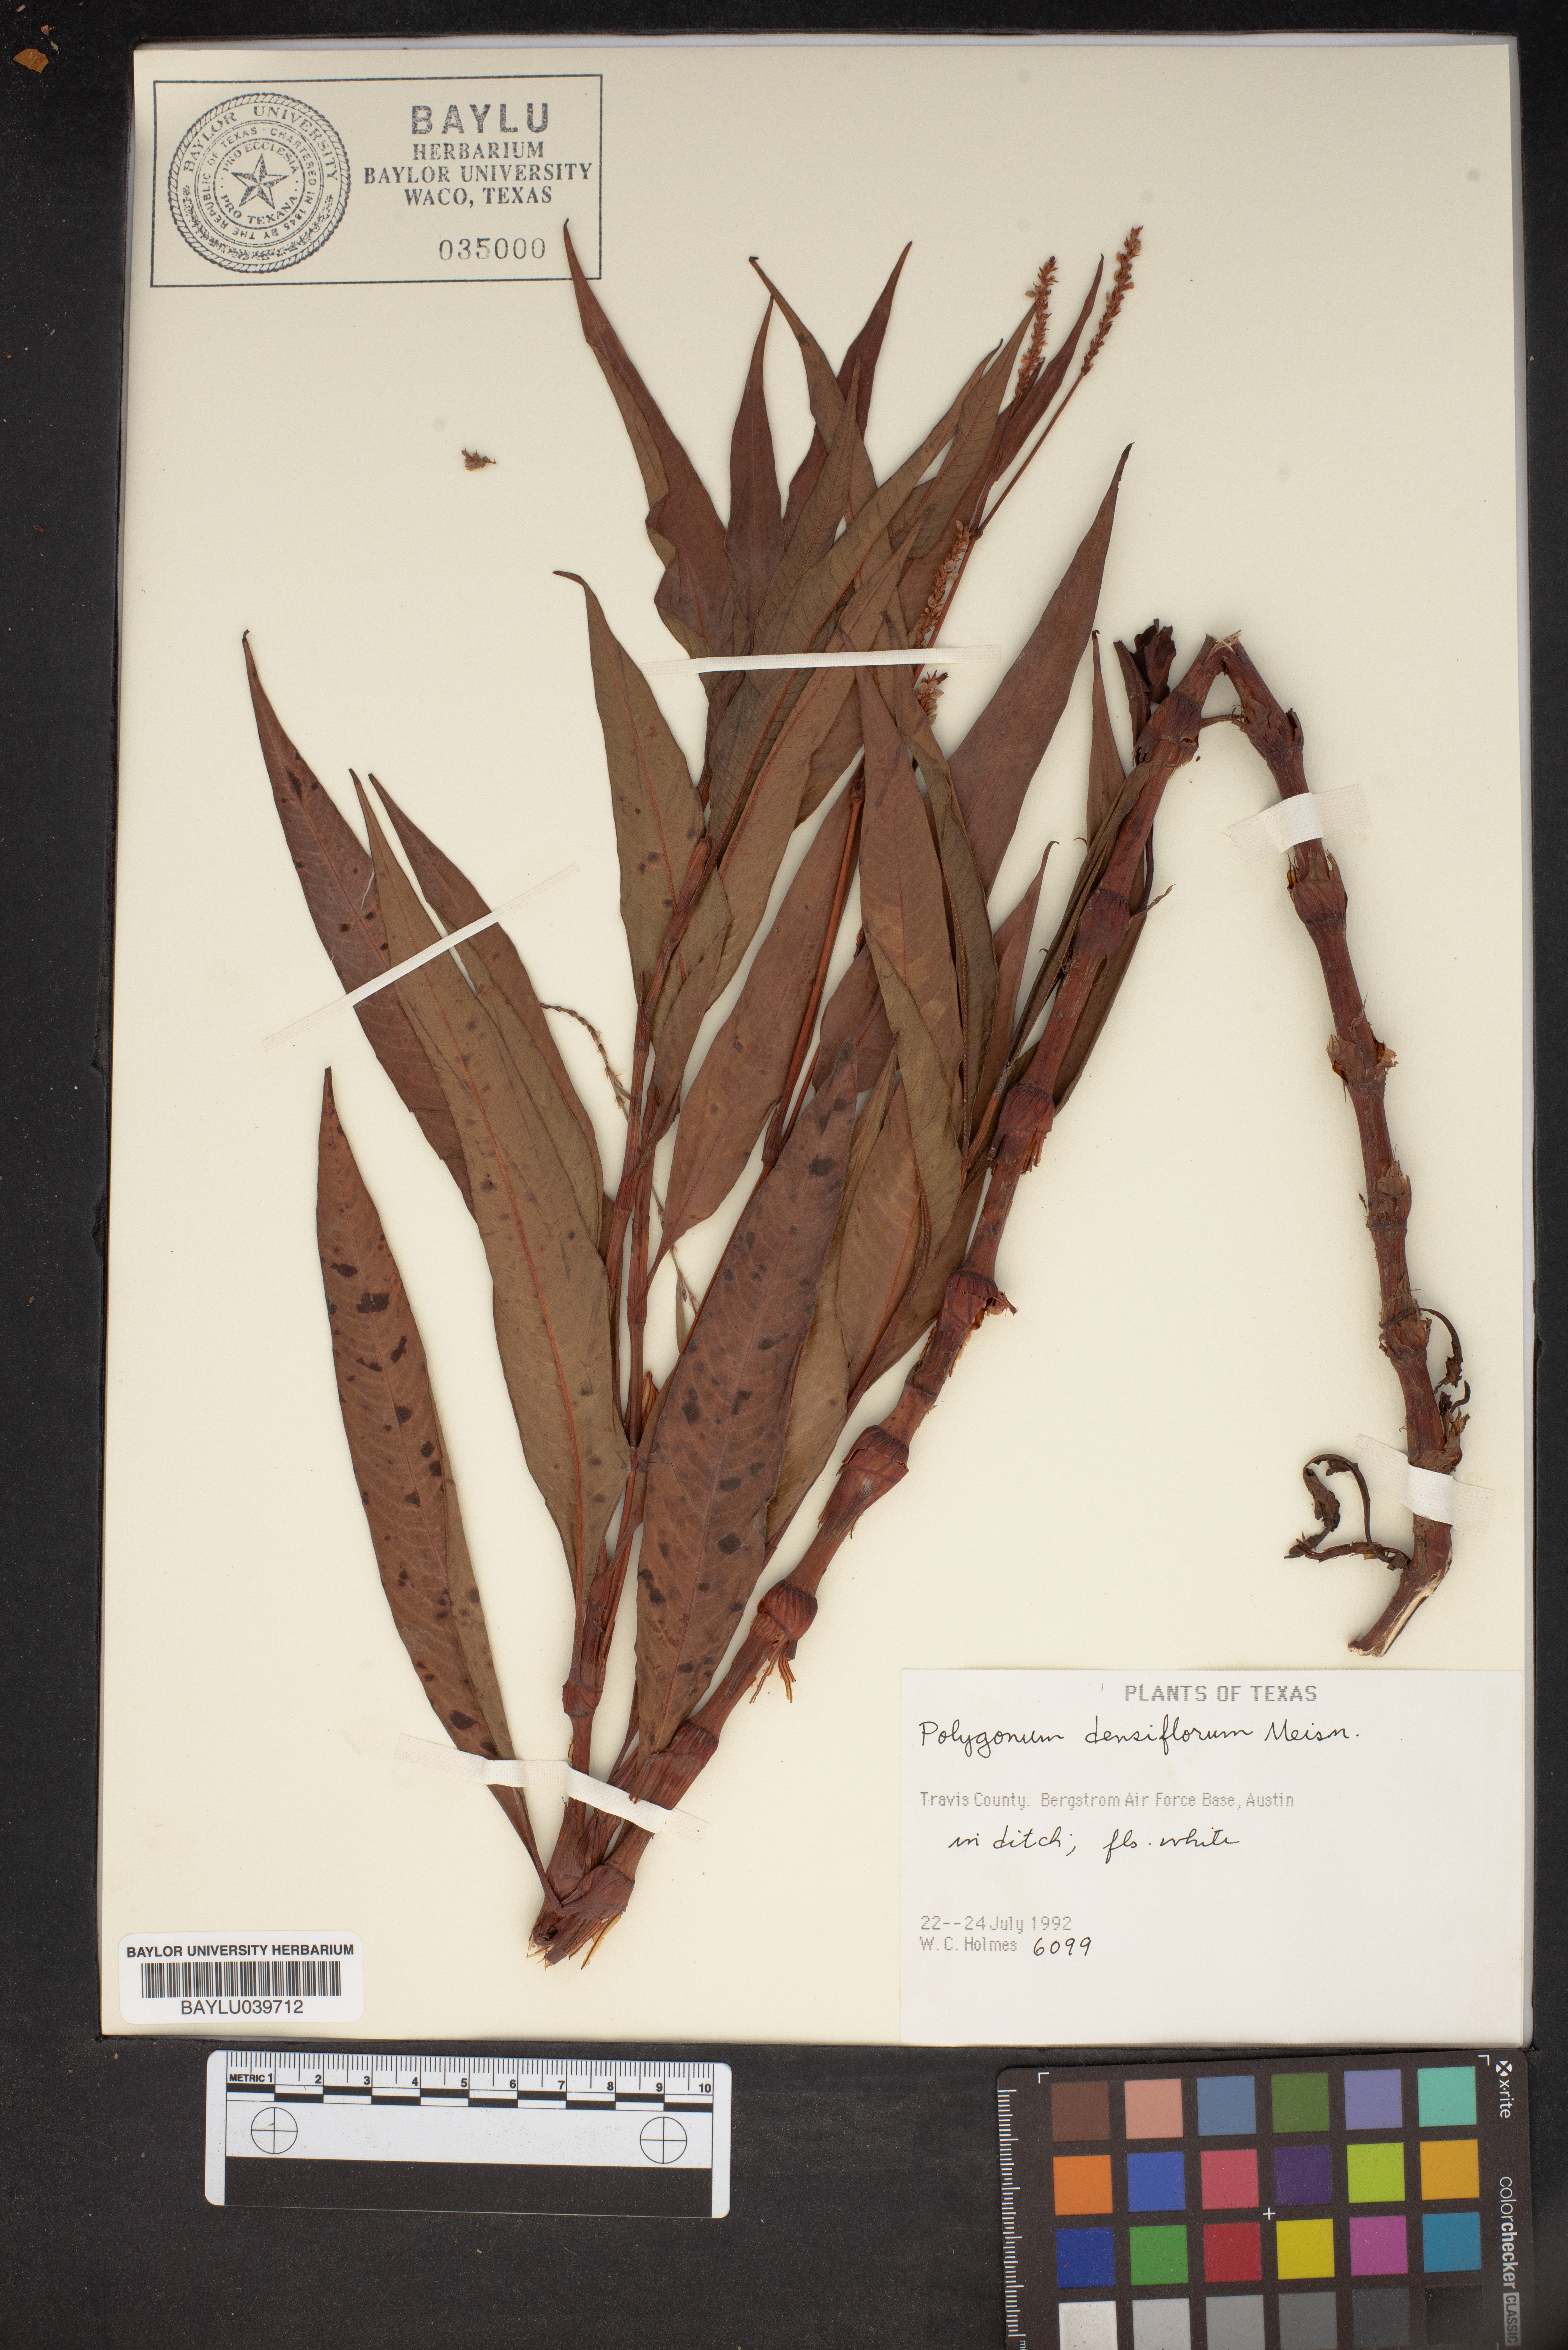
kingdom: Plantae
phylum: Tracheophyta
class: Magnoliopsida
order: Caryophyllales
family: Polygonaceae
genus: Persicaria
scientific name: Persicaria glabra
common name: Denseflower knotweed
